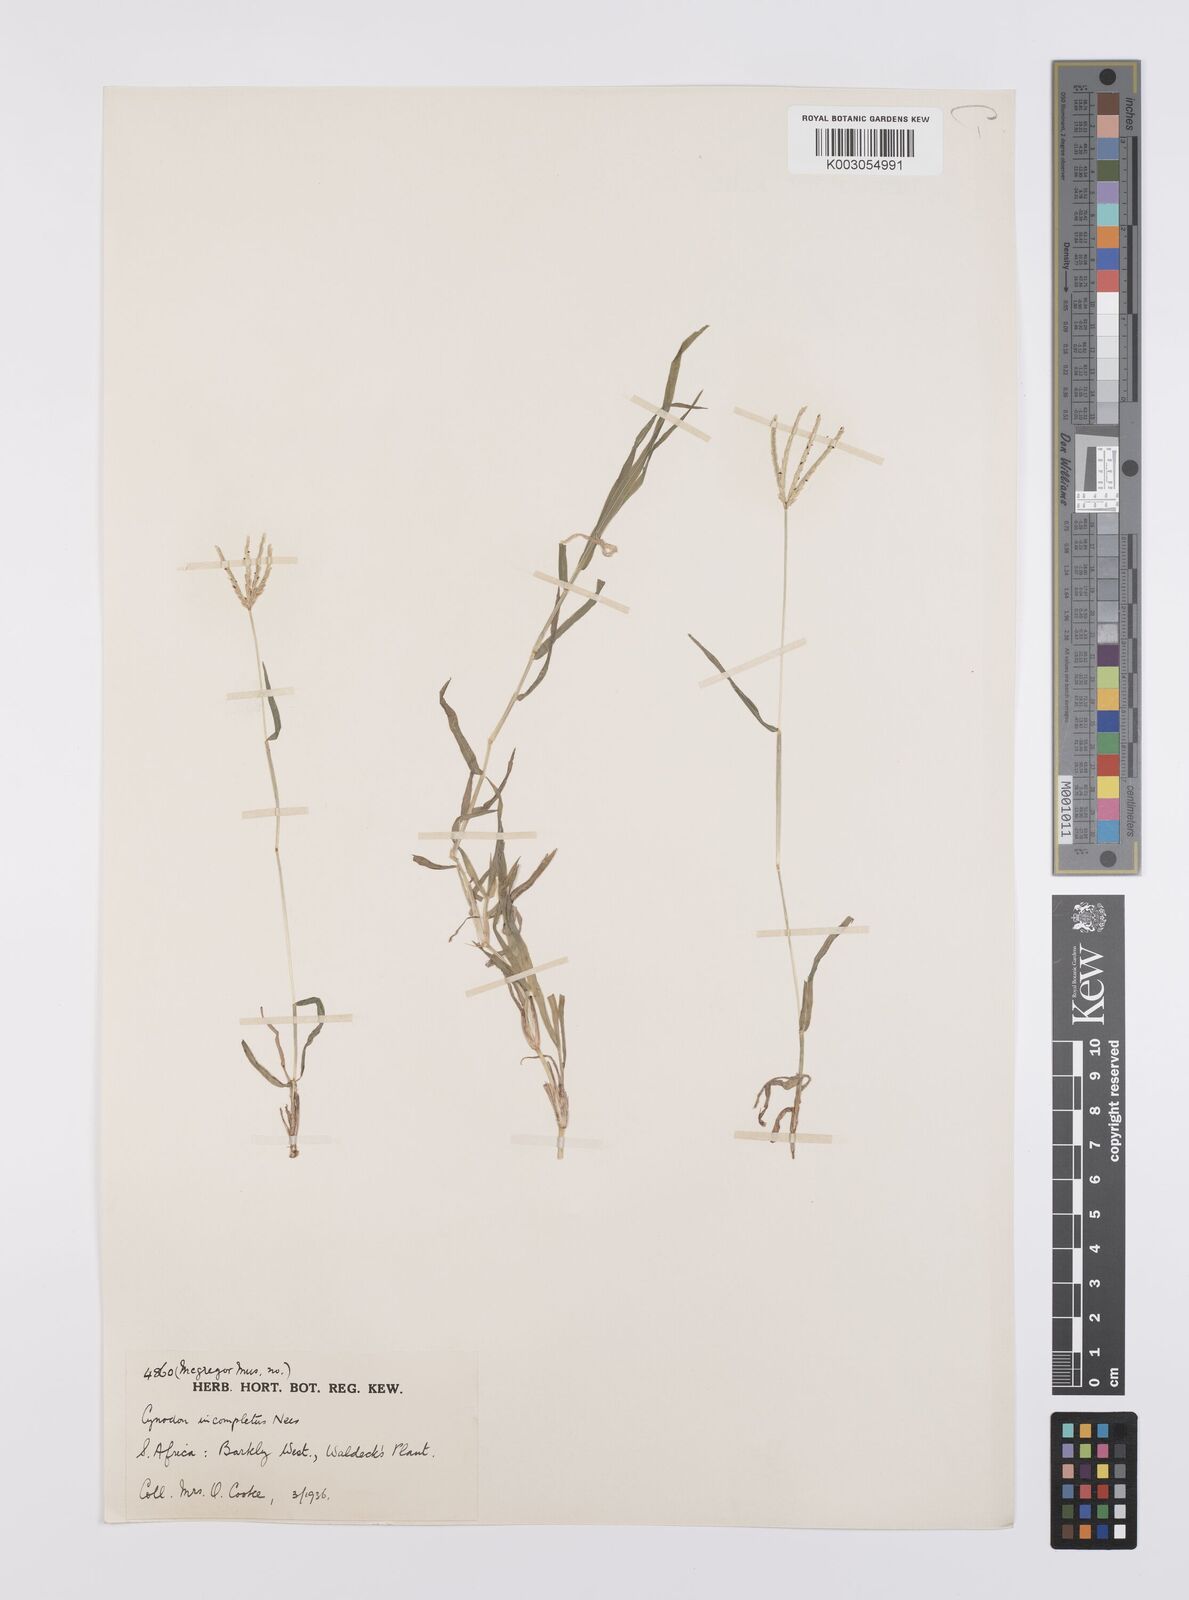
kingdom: Plantae
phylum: Tracheophyta
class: Liliopsida
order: Poales
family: Poaceae
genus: Cynodon
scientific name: Cynodon incompletus
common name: African bermuda-grass
